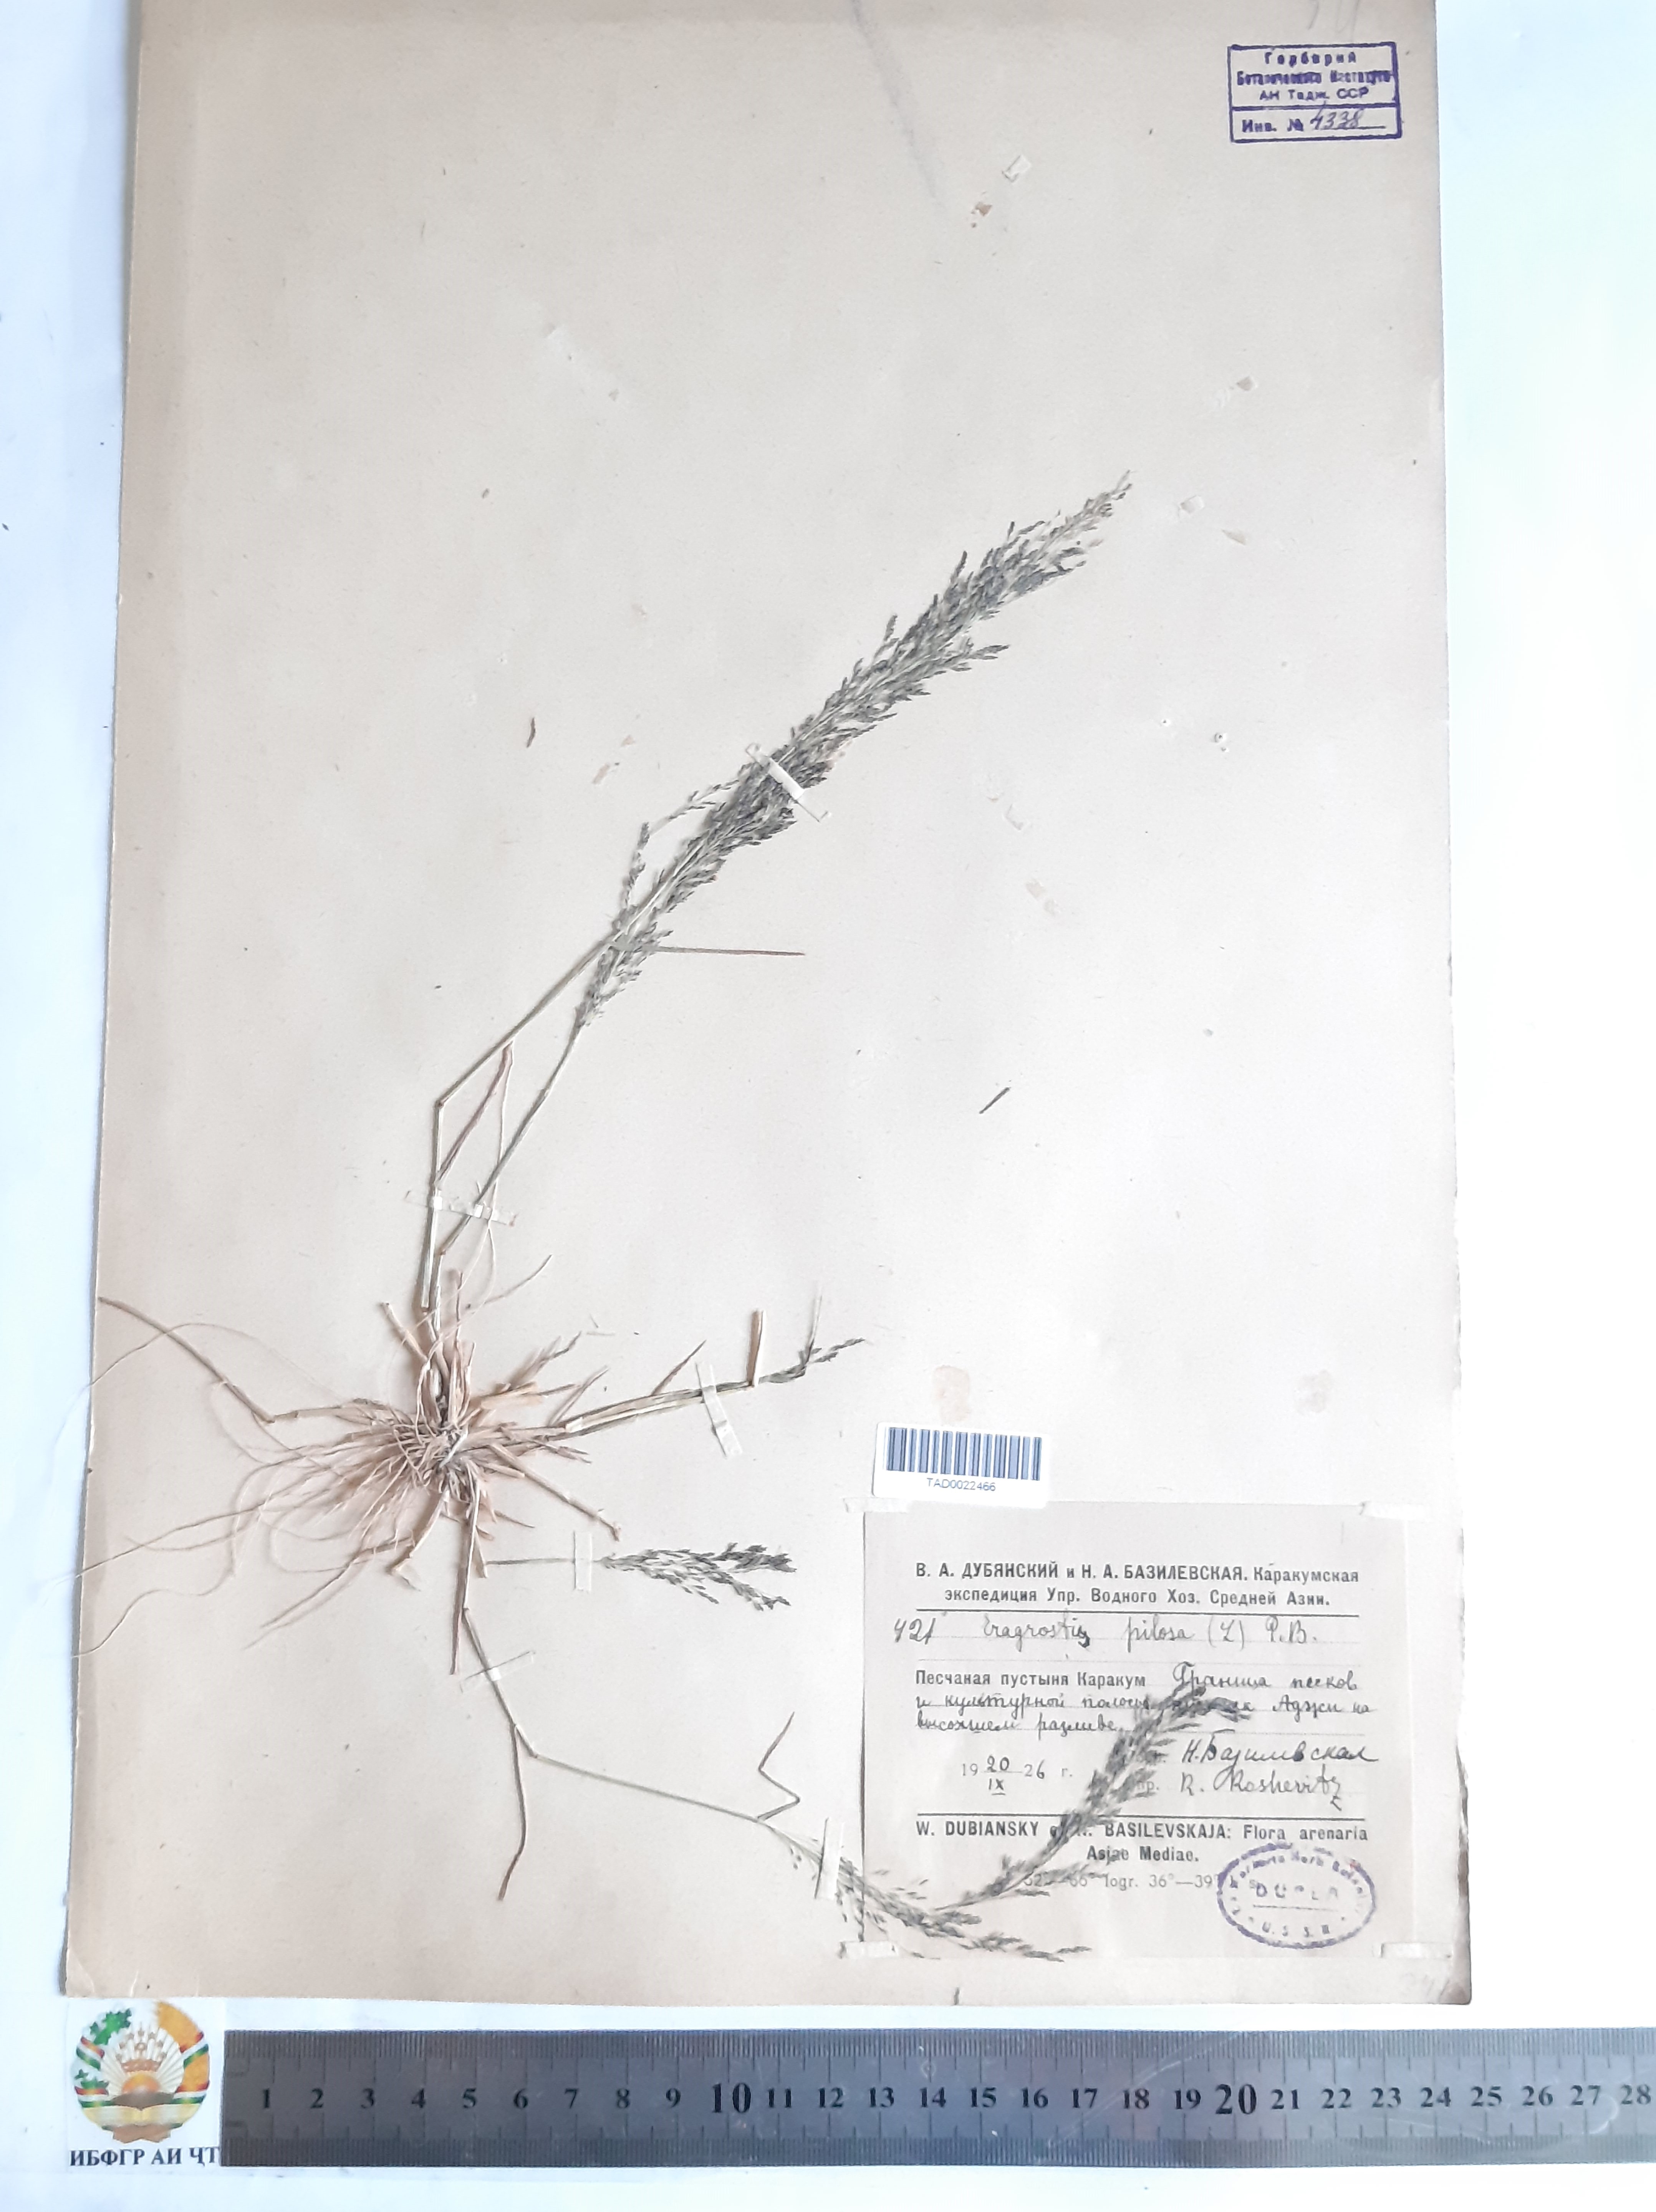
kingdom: Plantae
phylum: Tracheophyta
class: Liliopsida
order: Poales
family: Poaceae
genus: Eragrostis
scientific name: Eragrostis pilosa
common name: Indian lovegrass
